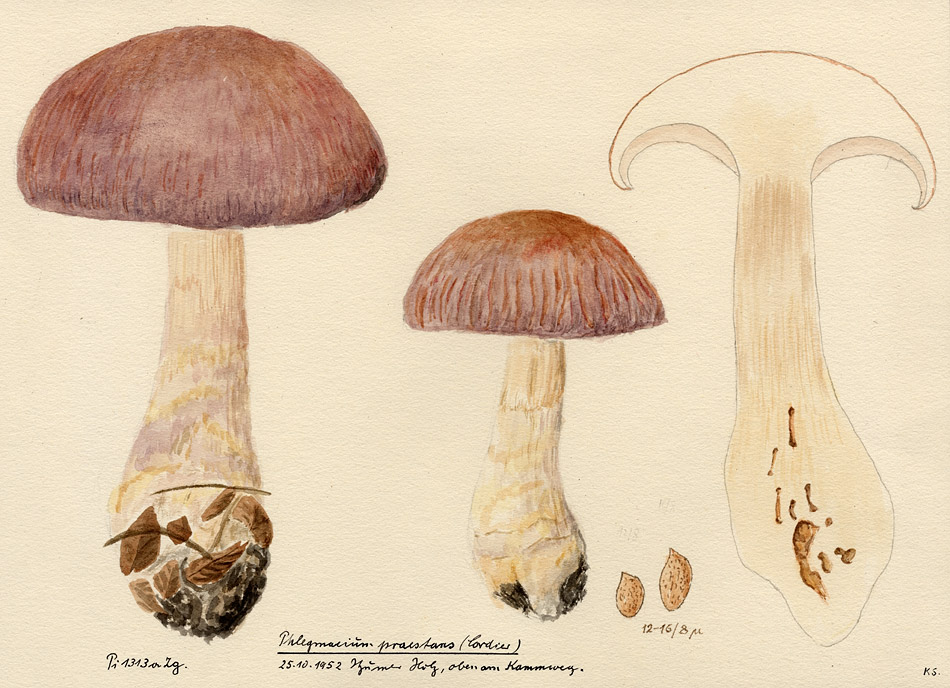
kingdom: Fungi
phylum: Basidiomycota
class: Agaricomycetes
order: Agaricales
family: Cortinariaceae
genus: Cortinarius
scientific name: Cortinarius praestans
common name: Goliath webcap
